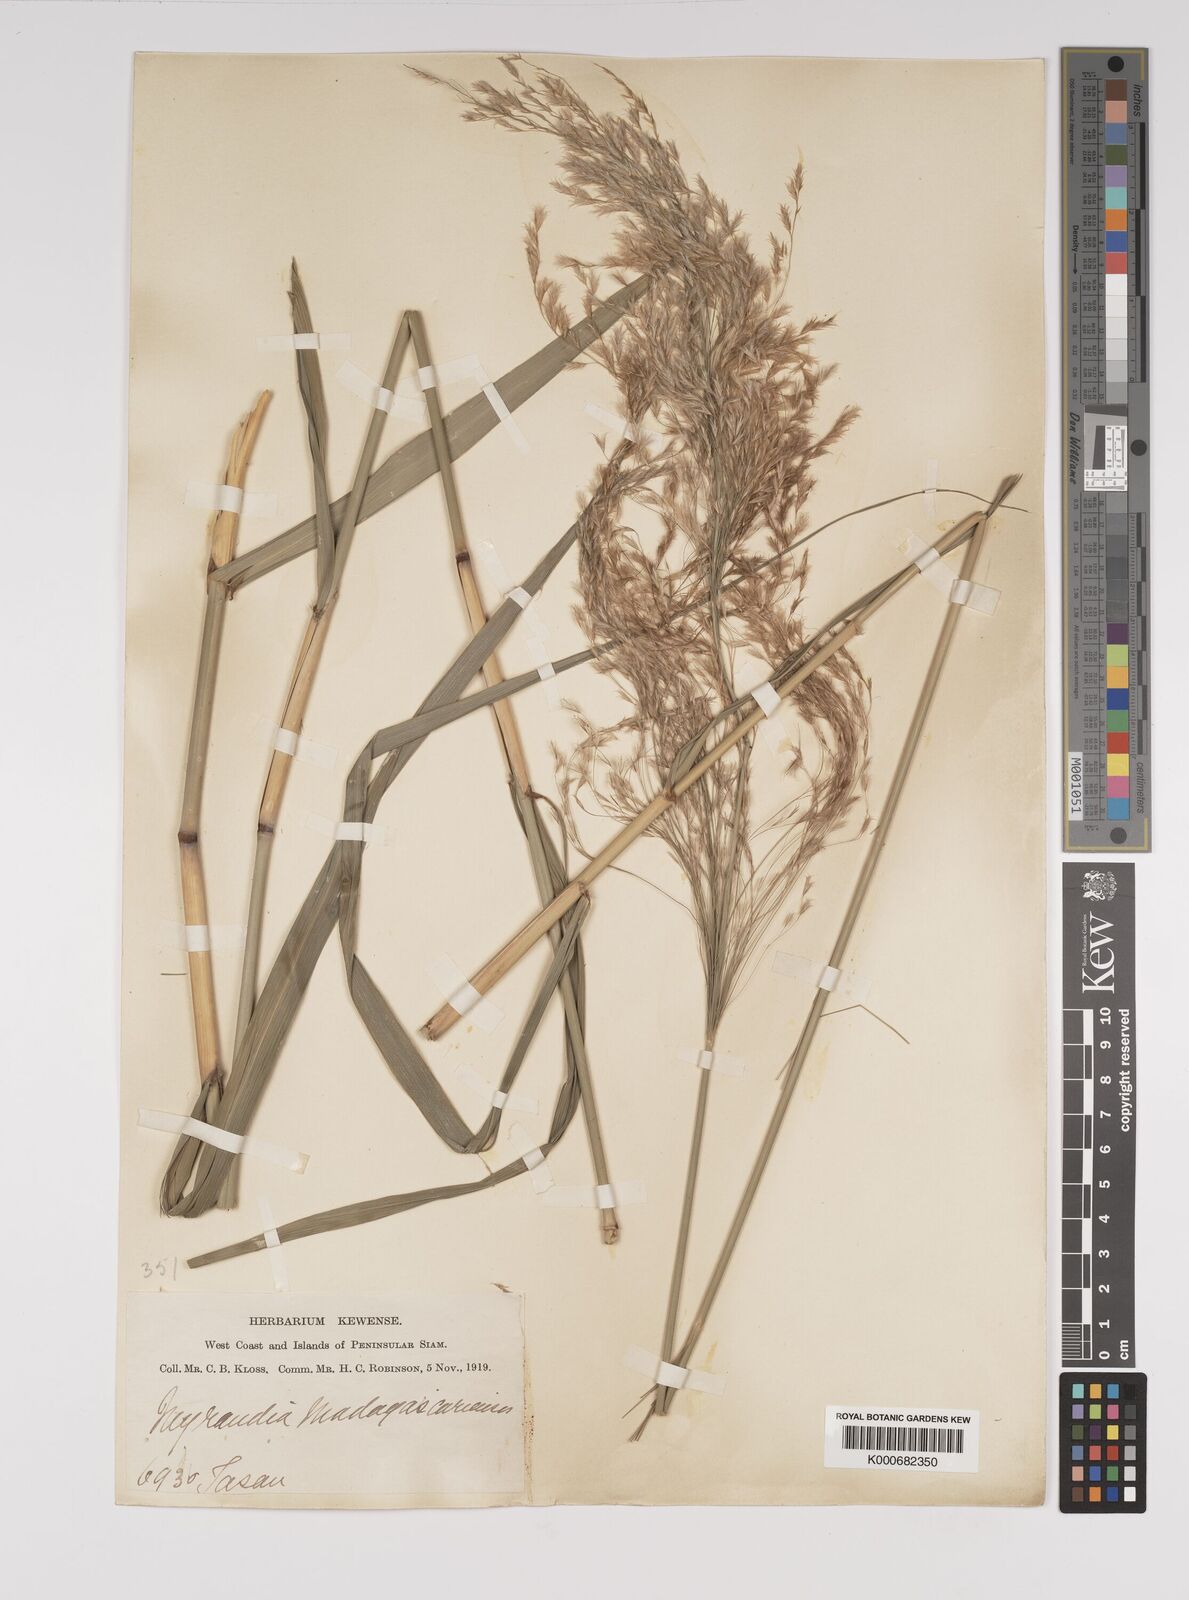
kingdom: Plantae
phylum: Tracheophyta
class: Liliopsida
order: Poales
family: Poaceae
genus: Neyraudia
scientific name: Neyraudia reynaudiana
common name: Silkreed
